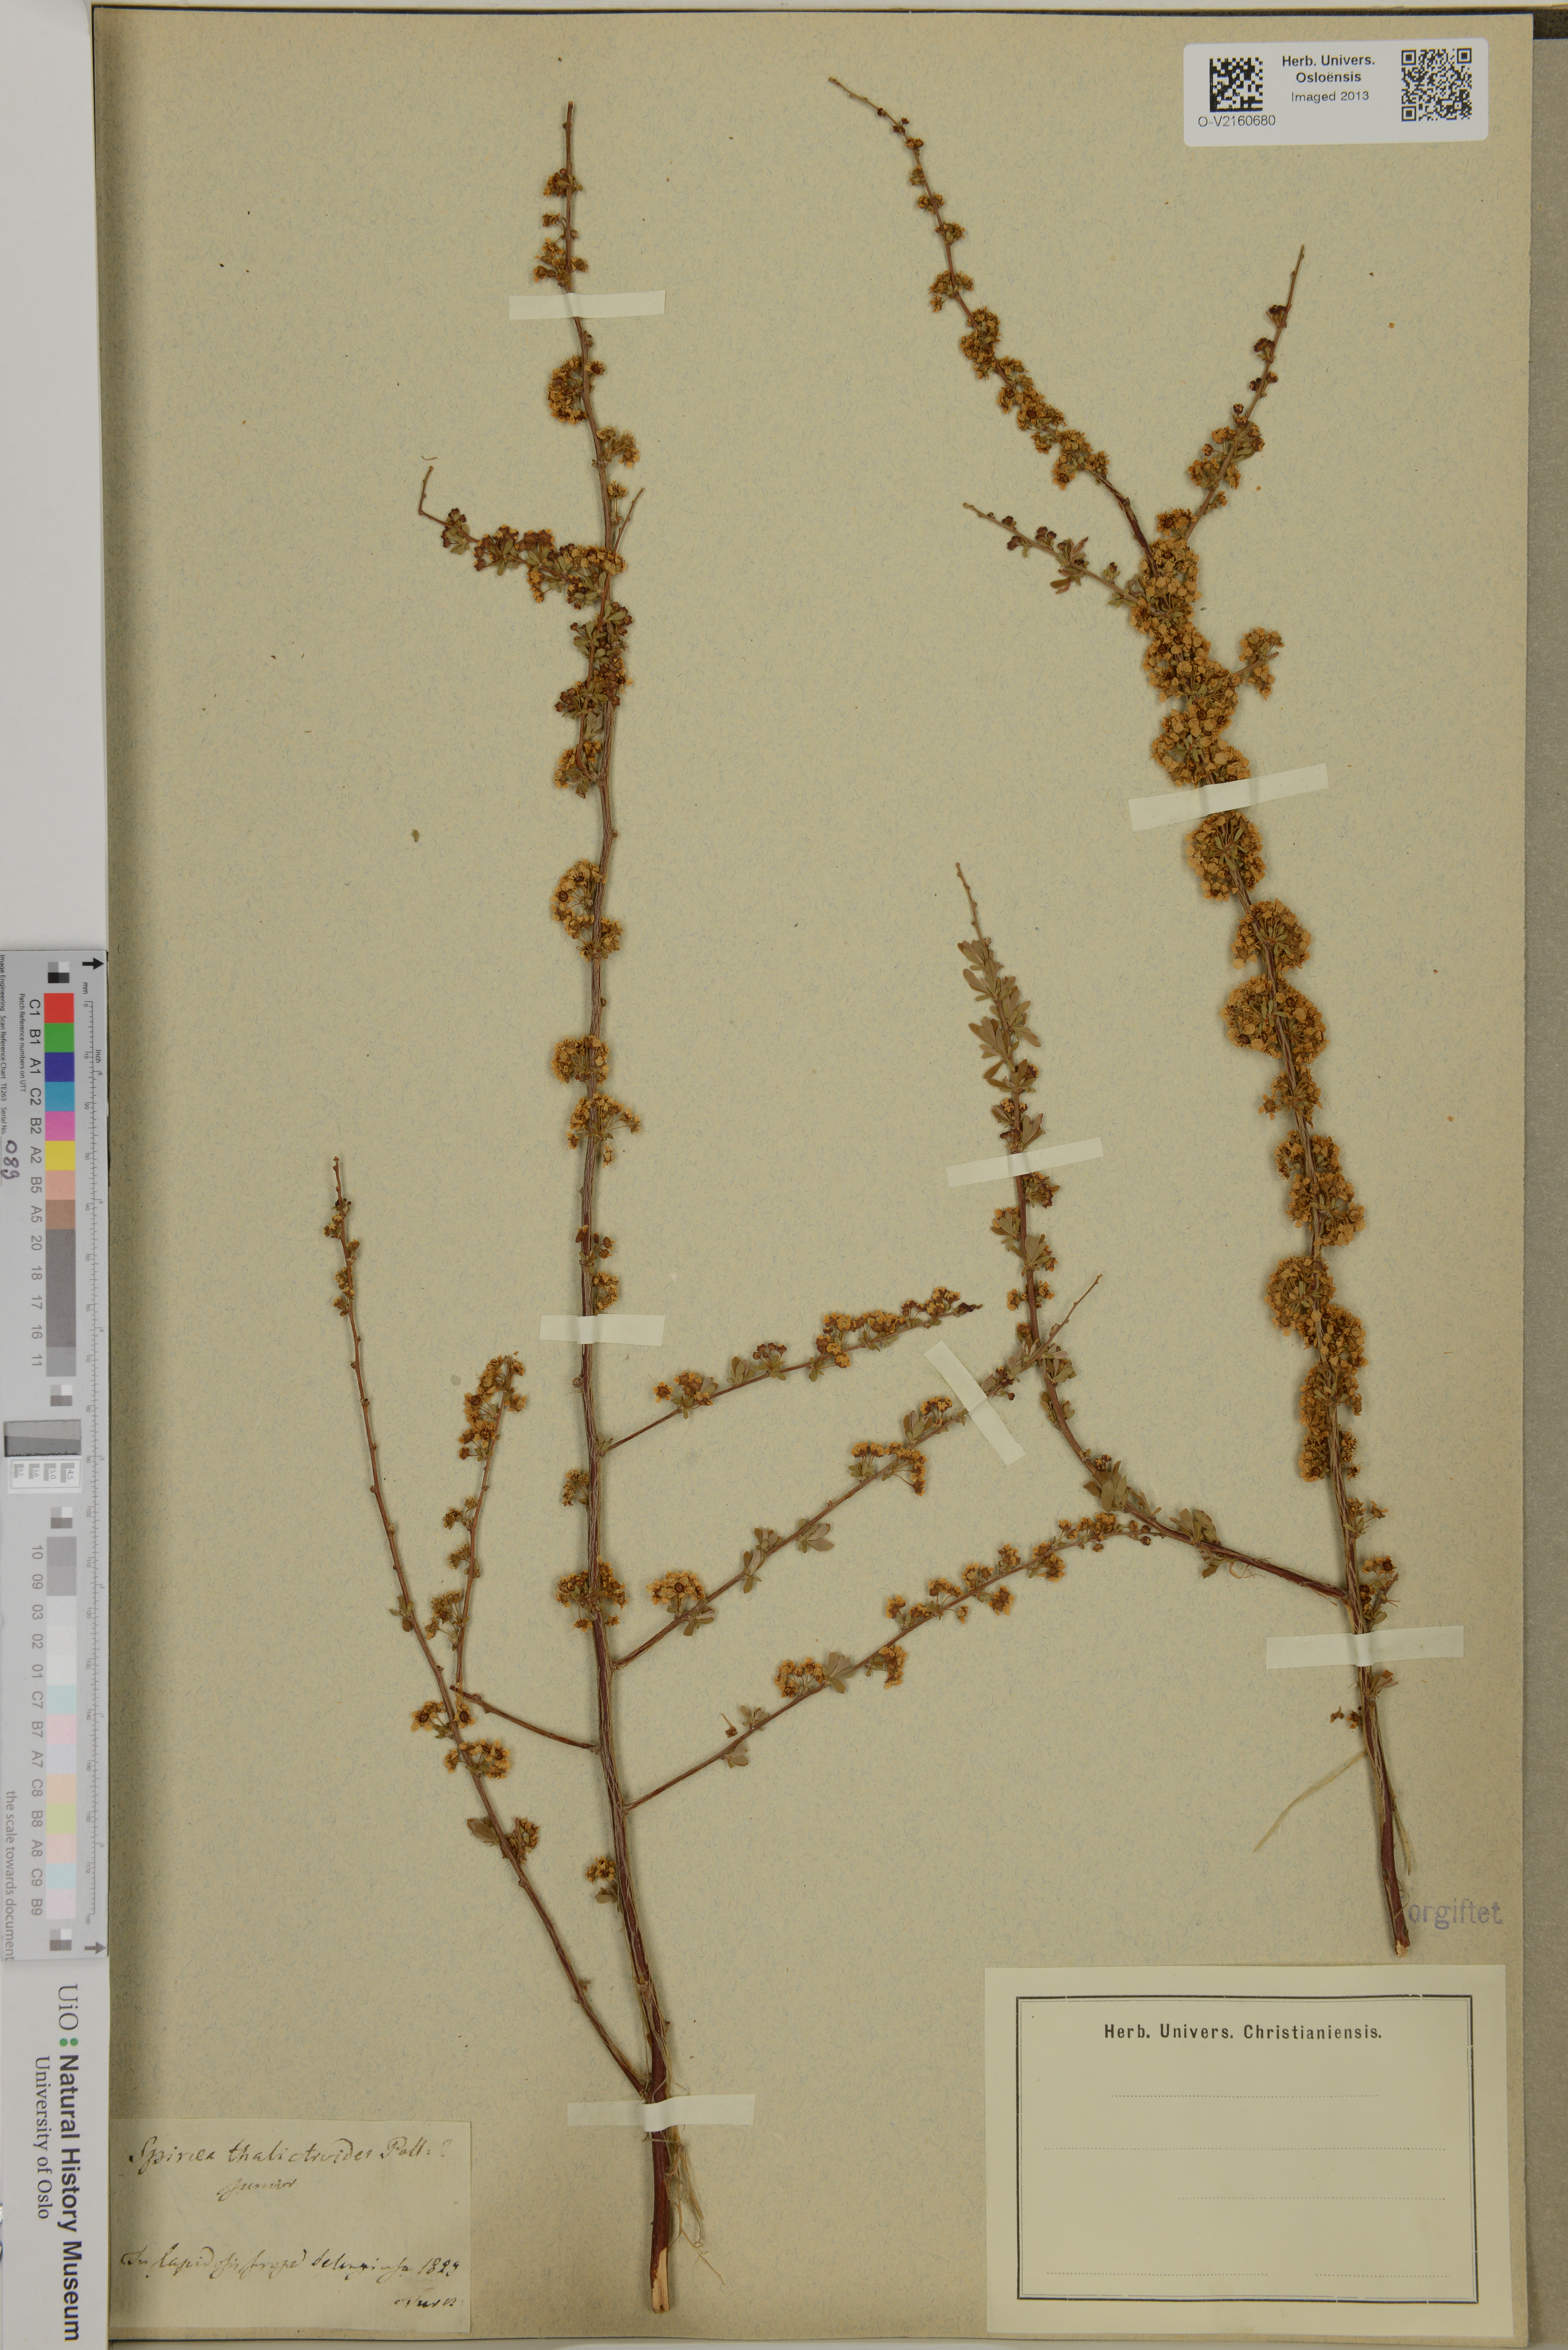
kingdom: Plantae
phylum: Tracheophyta
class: Magnoliopsida
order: Rosales
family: Rosaceae
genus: Spiraea
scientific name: Spiraea aquilegifolia
